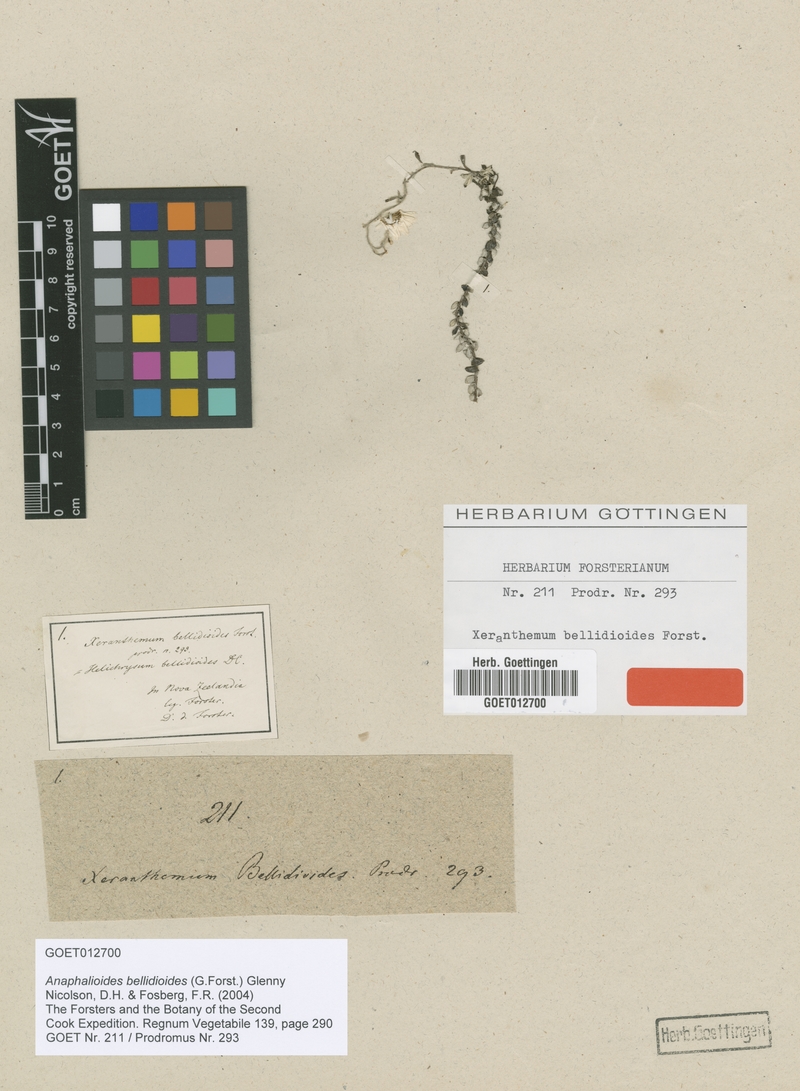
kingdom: Plantae
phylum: Tracheophyta
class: Magnoliopsida
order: Asterales
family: Asteraceae
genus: Anaphalioides
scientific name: Anaphalioides bellidioides
